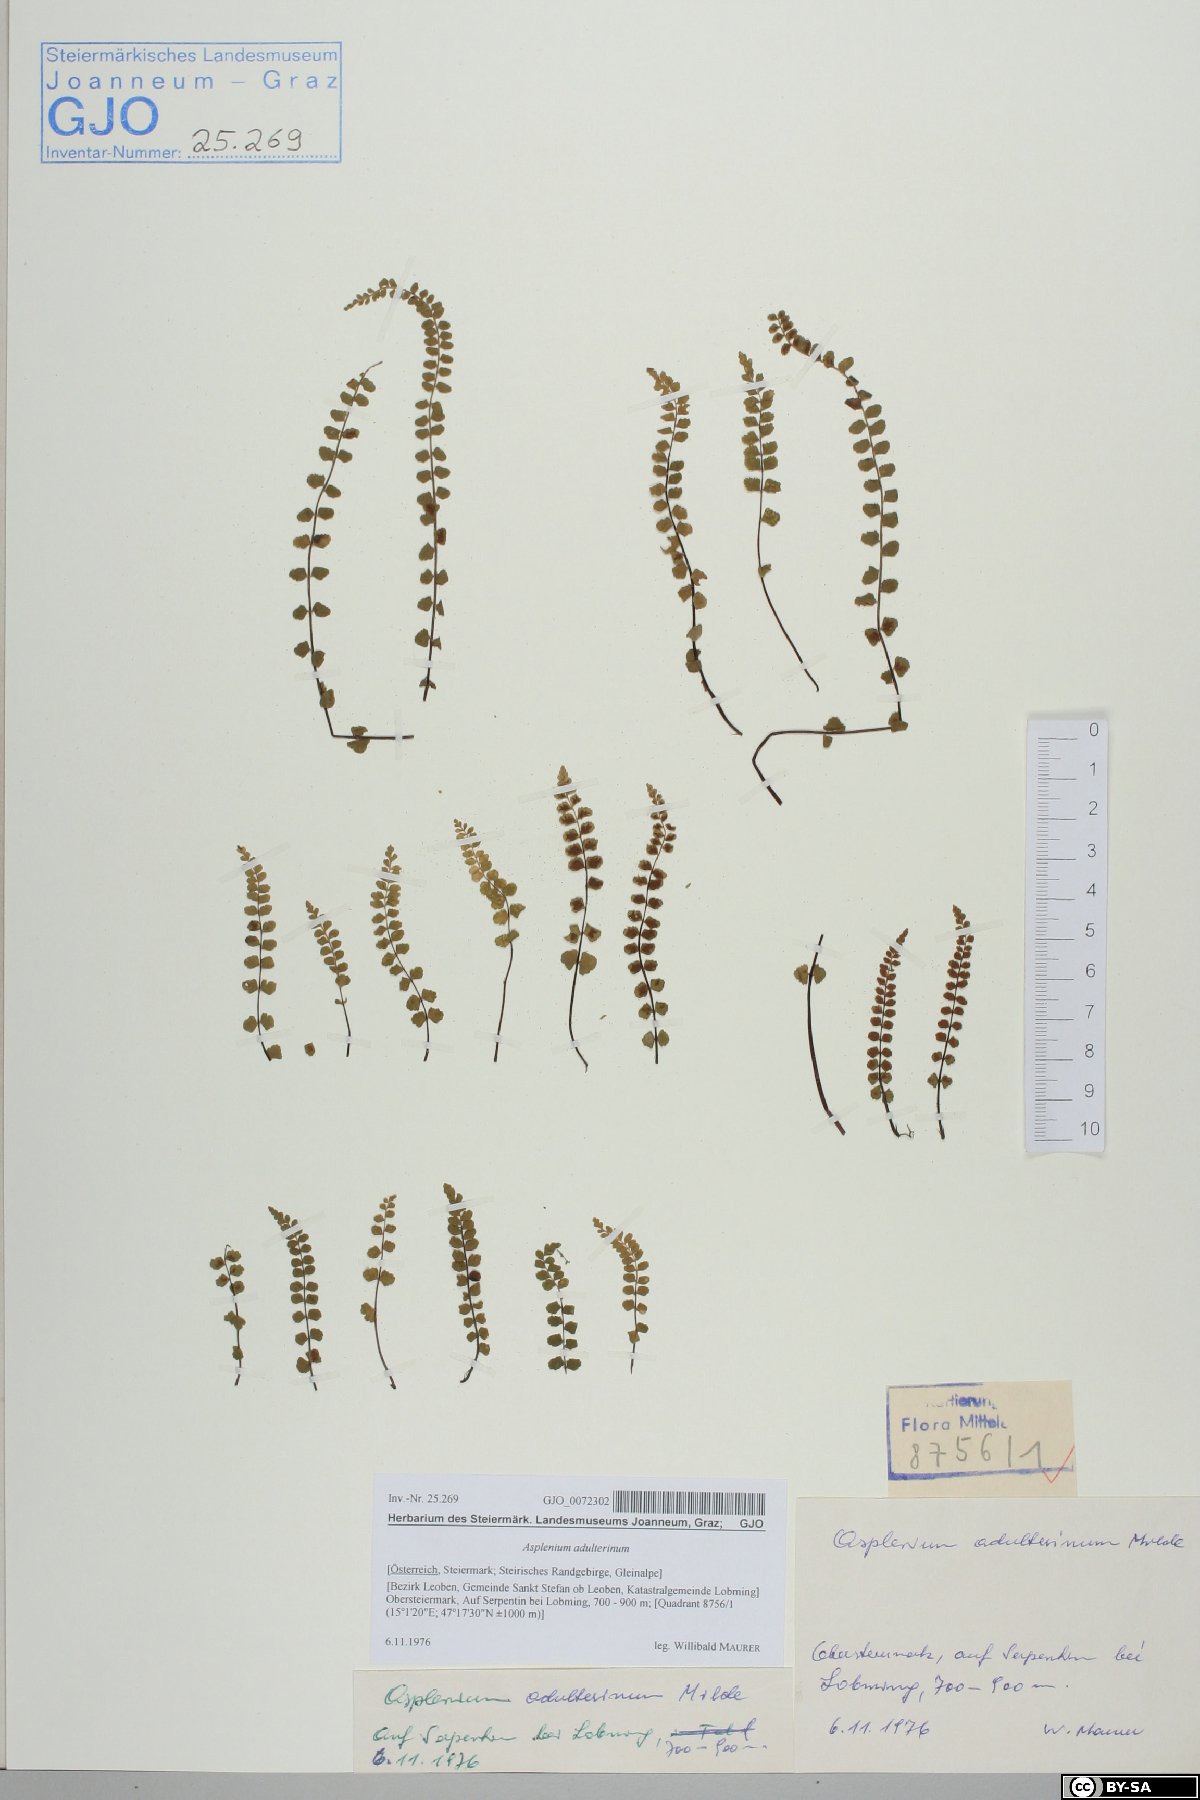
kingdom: Plantae
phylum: Tracheophyta
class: Polypodiopsida
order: Polypodiales
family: Aspleniaceae
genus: Asplenium
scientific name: Asplenium adulterinum
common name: Adulterated spleenwort
